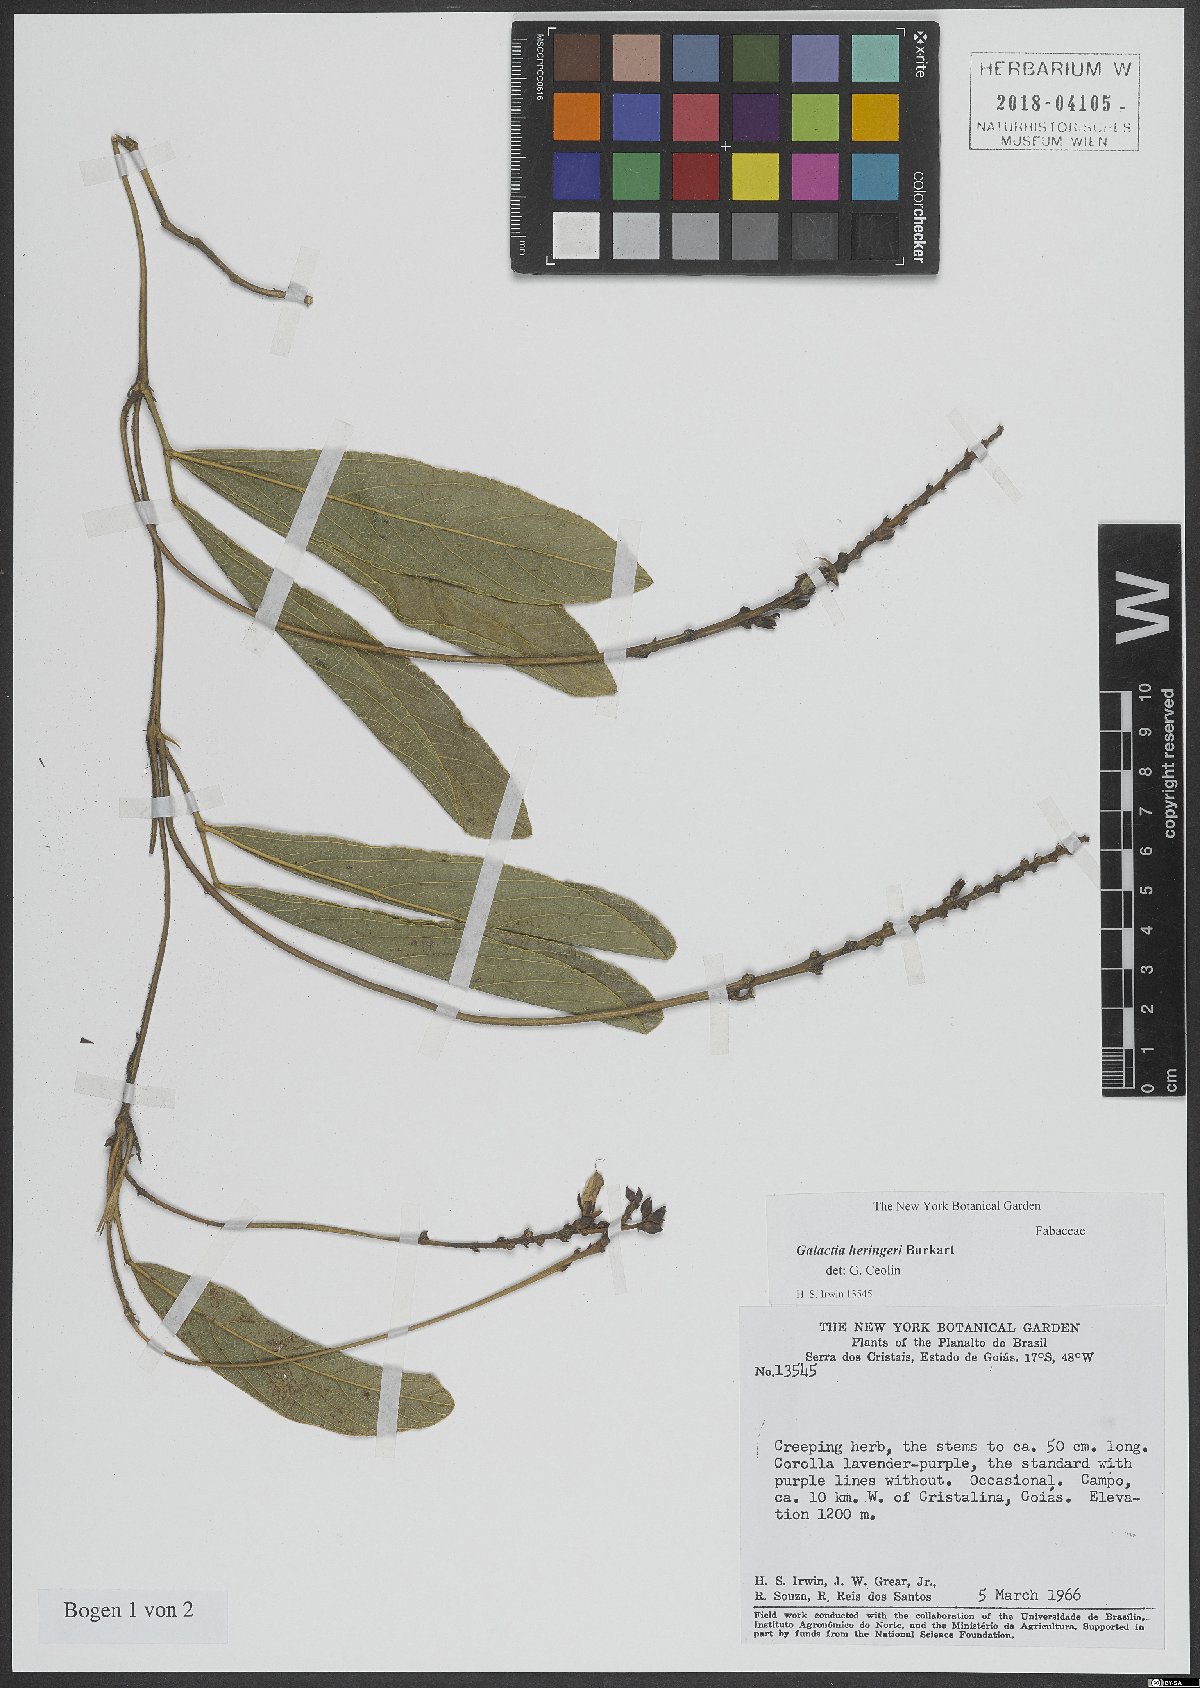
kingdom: Plantae
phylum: Tracheophyta
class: Magnoliopsida
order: Fabales
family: Fabaceae
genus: Cerradicola
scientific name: Cerradicola heringeri
